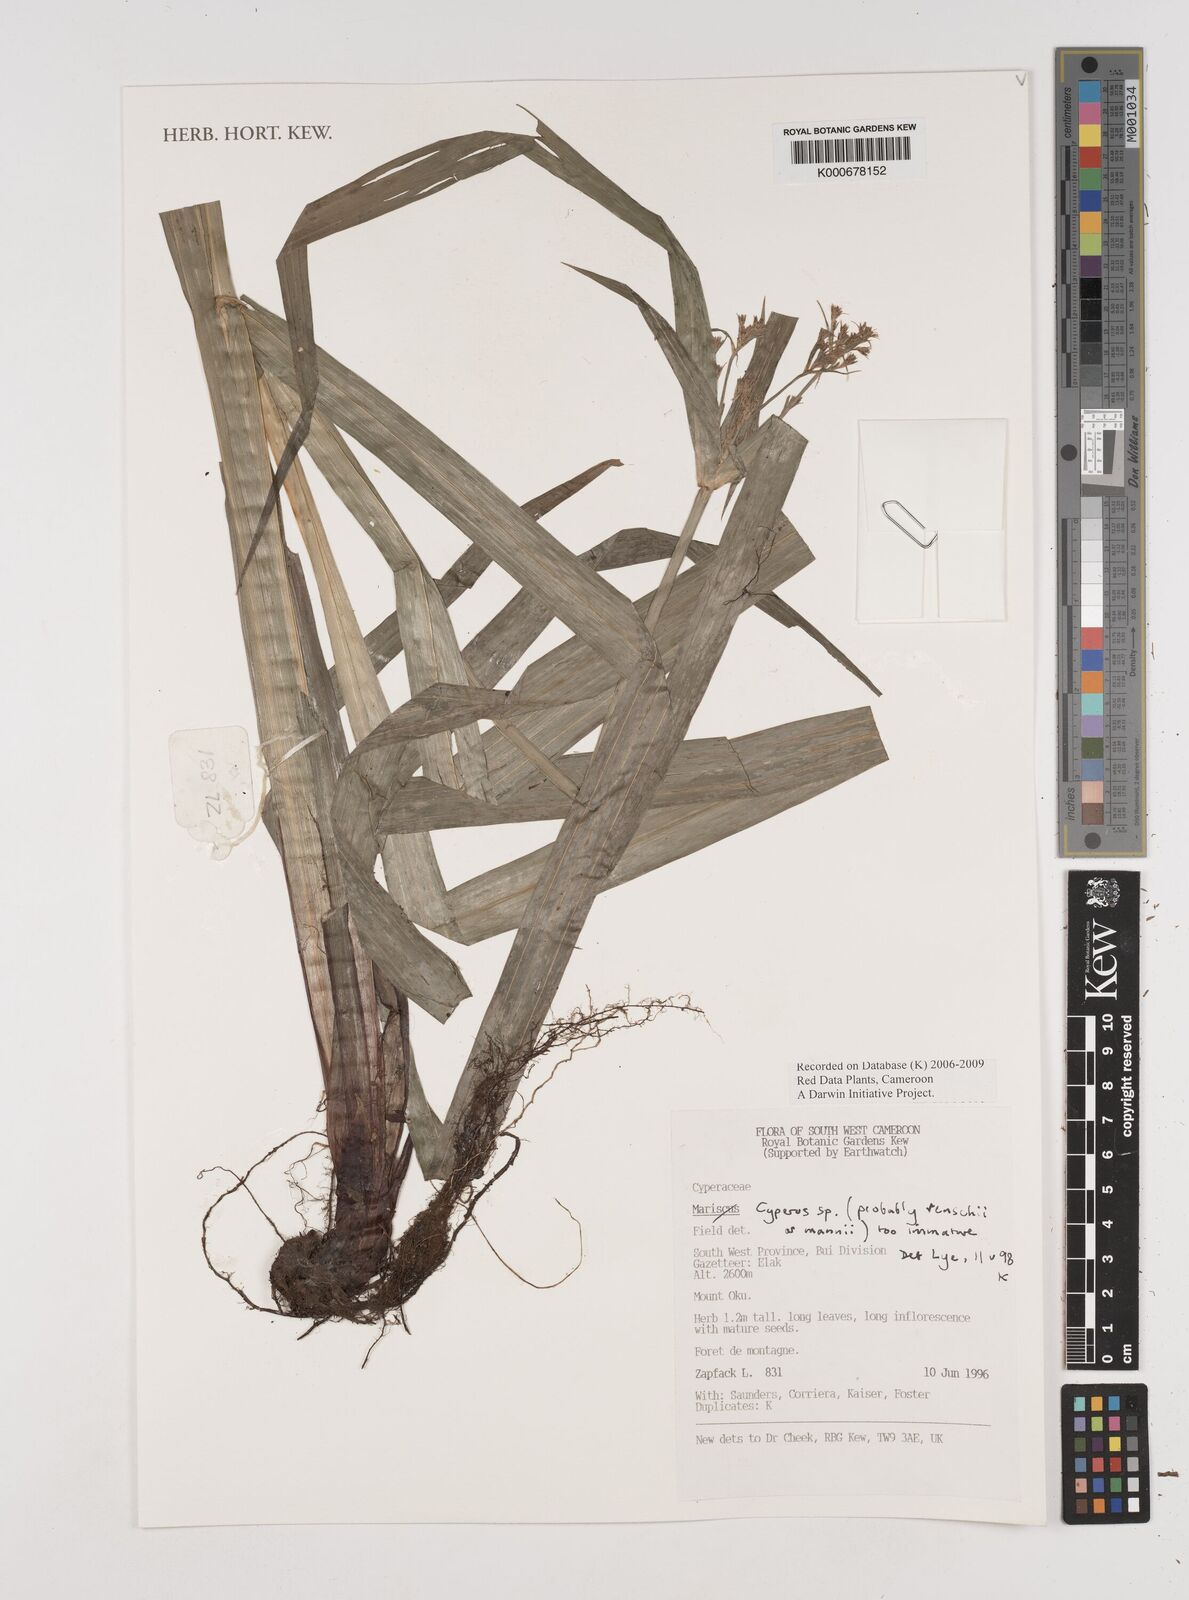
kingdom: Plantae
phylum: Tracheophyta
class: Liliopsida
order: Poales
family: Cyperaceae
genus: Cyperus
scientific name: Cyperus
